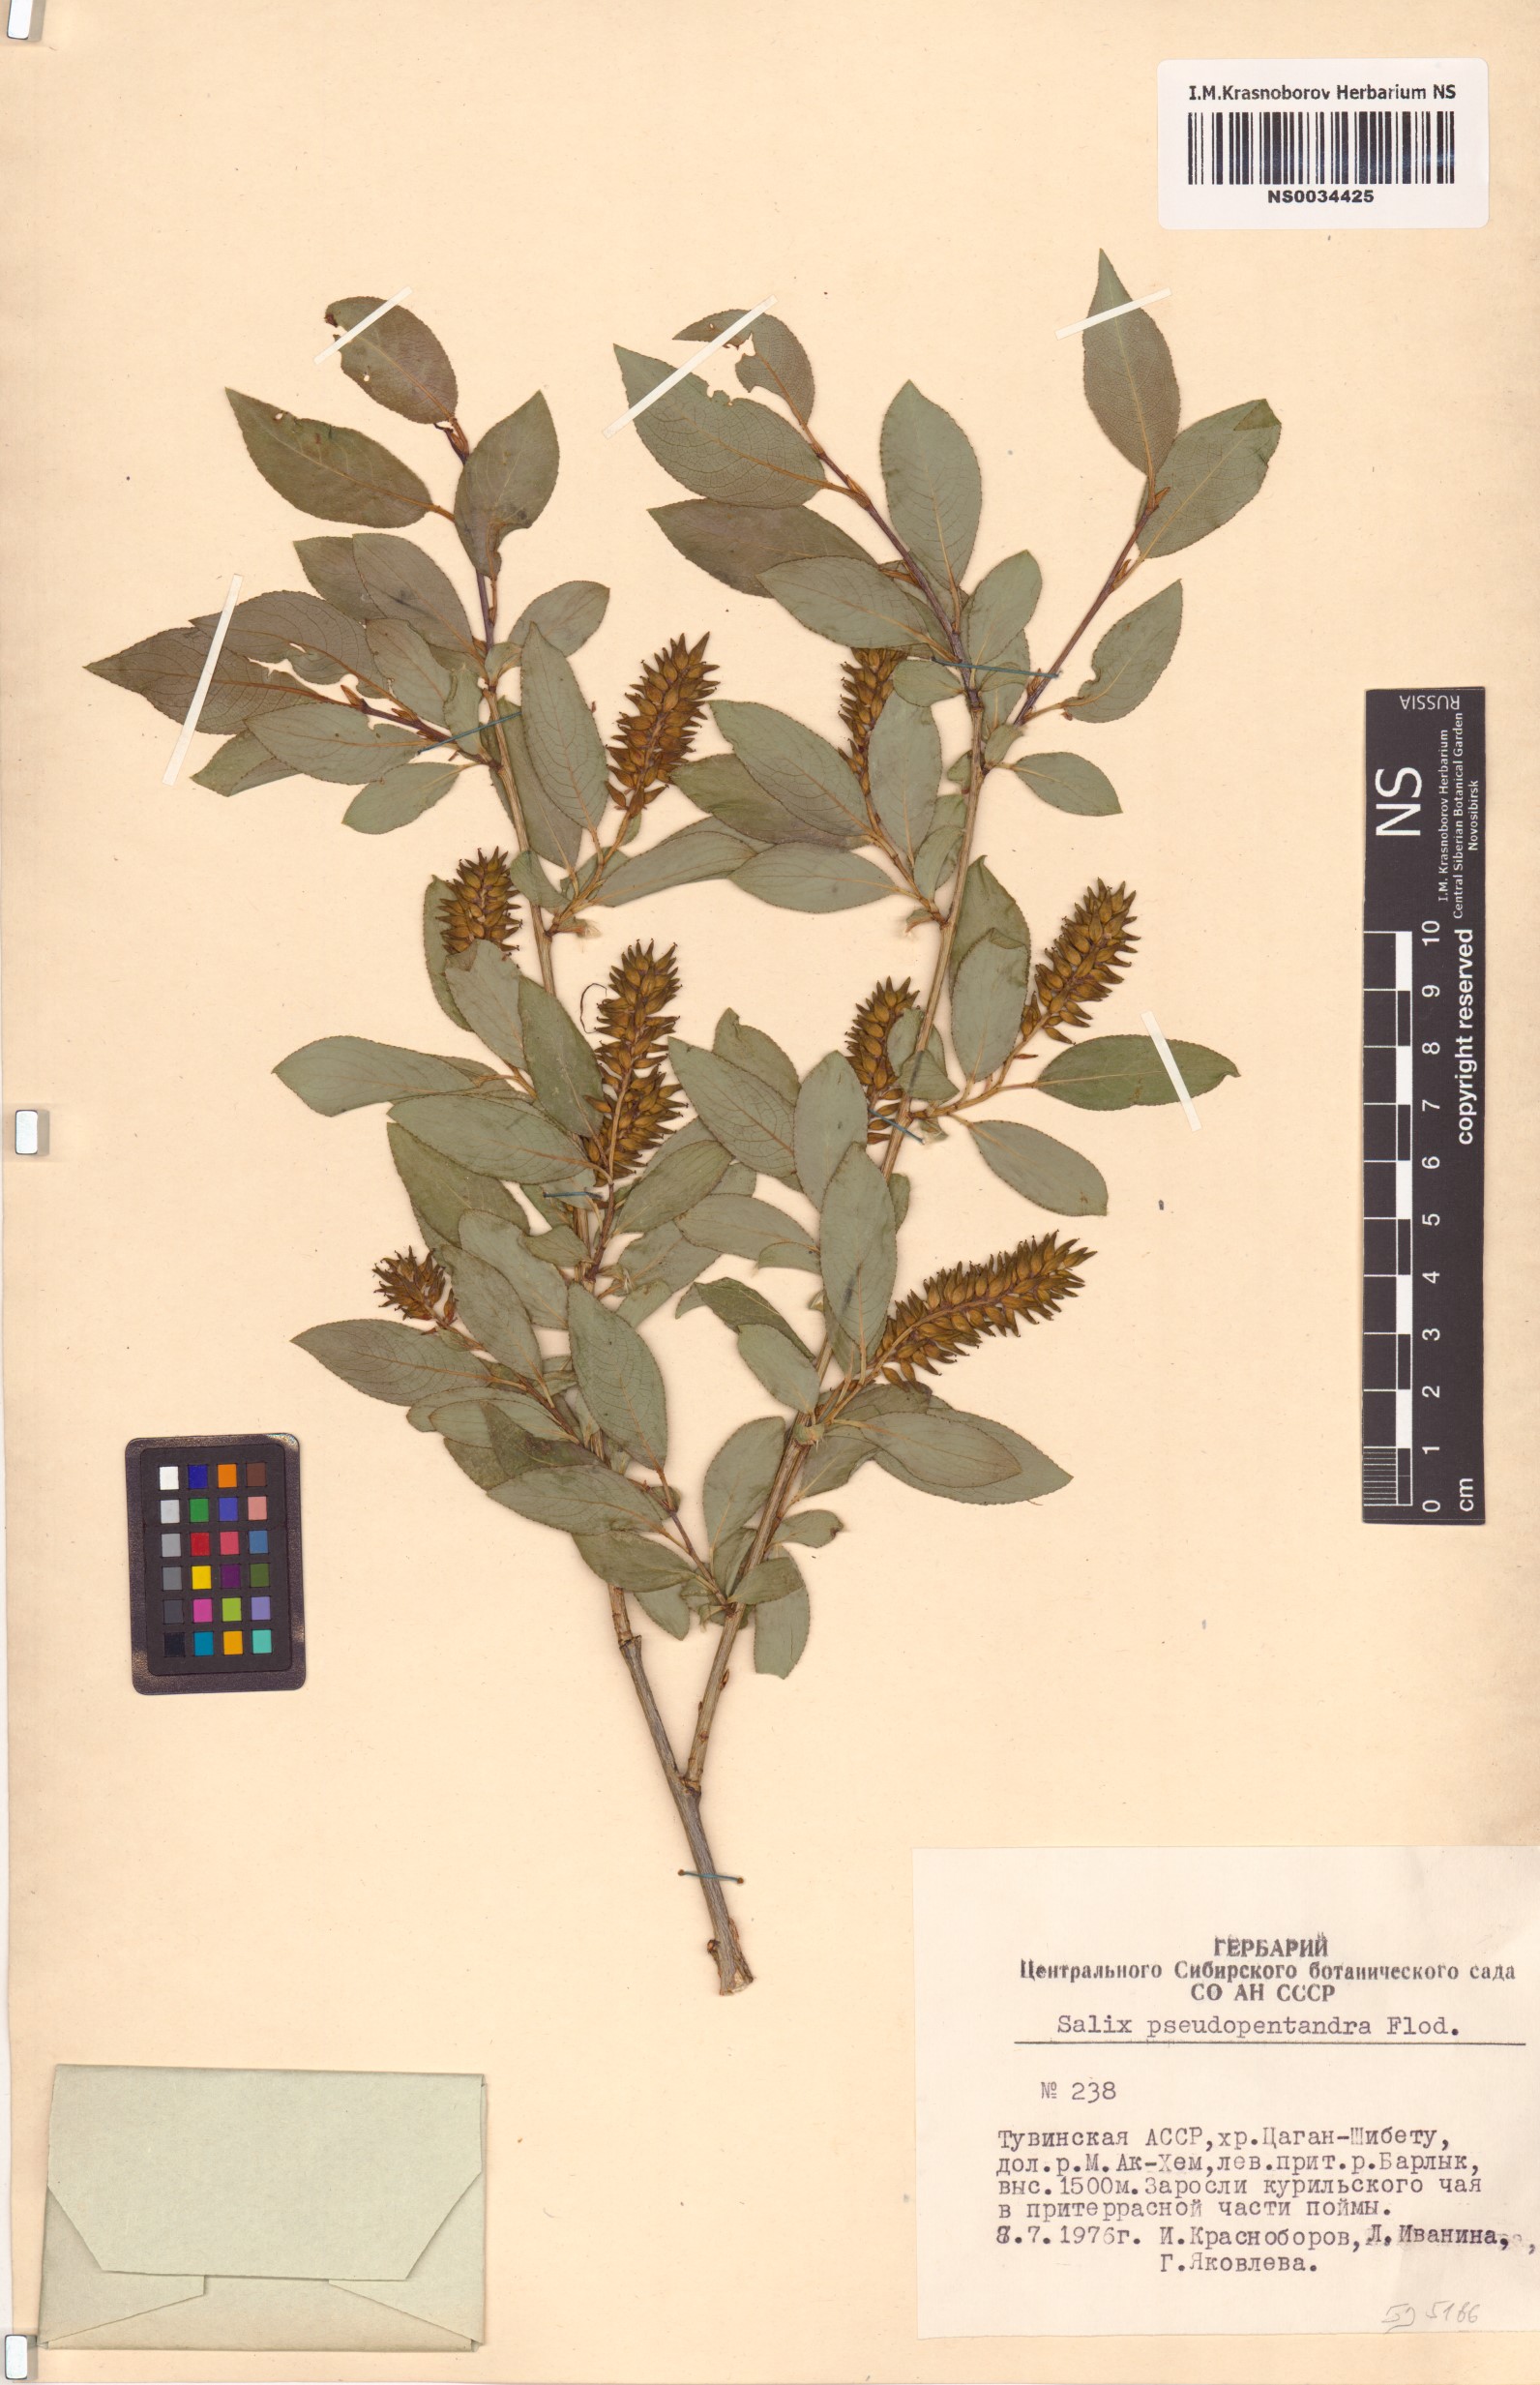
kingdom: Plantae
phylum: Tracheophyta
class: Magnoliopsida
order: Malpighiales
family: Salicaceae
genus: Salix
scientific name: Salix pseudopentandra
